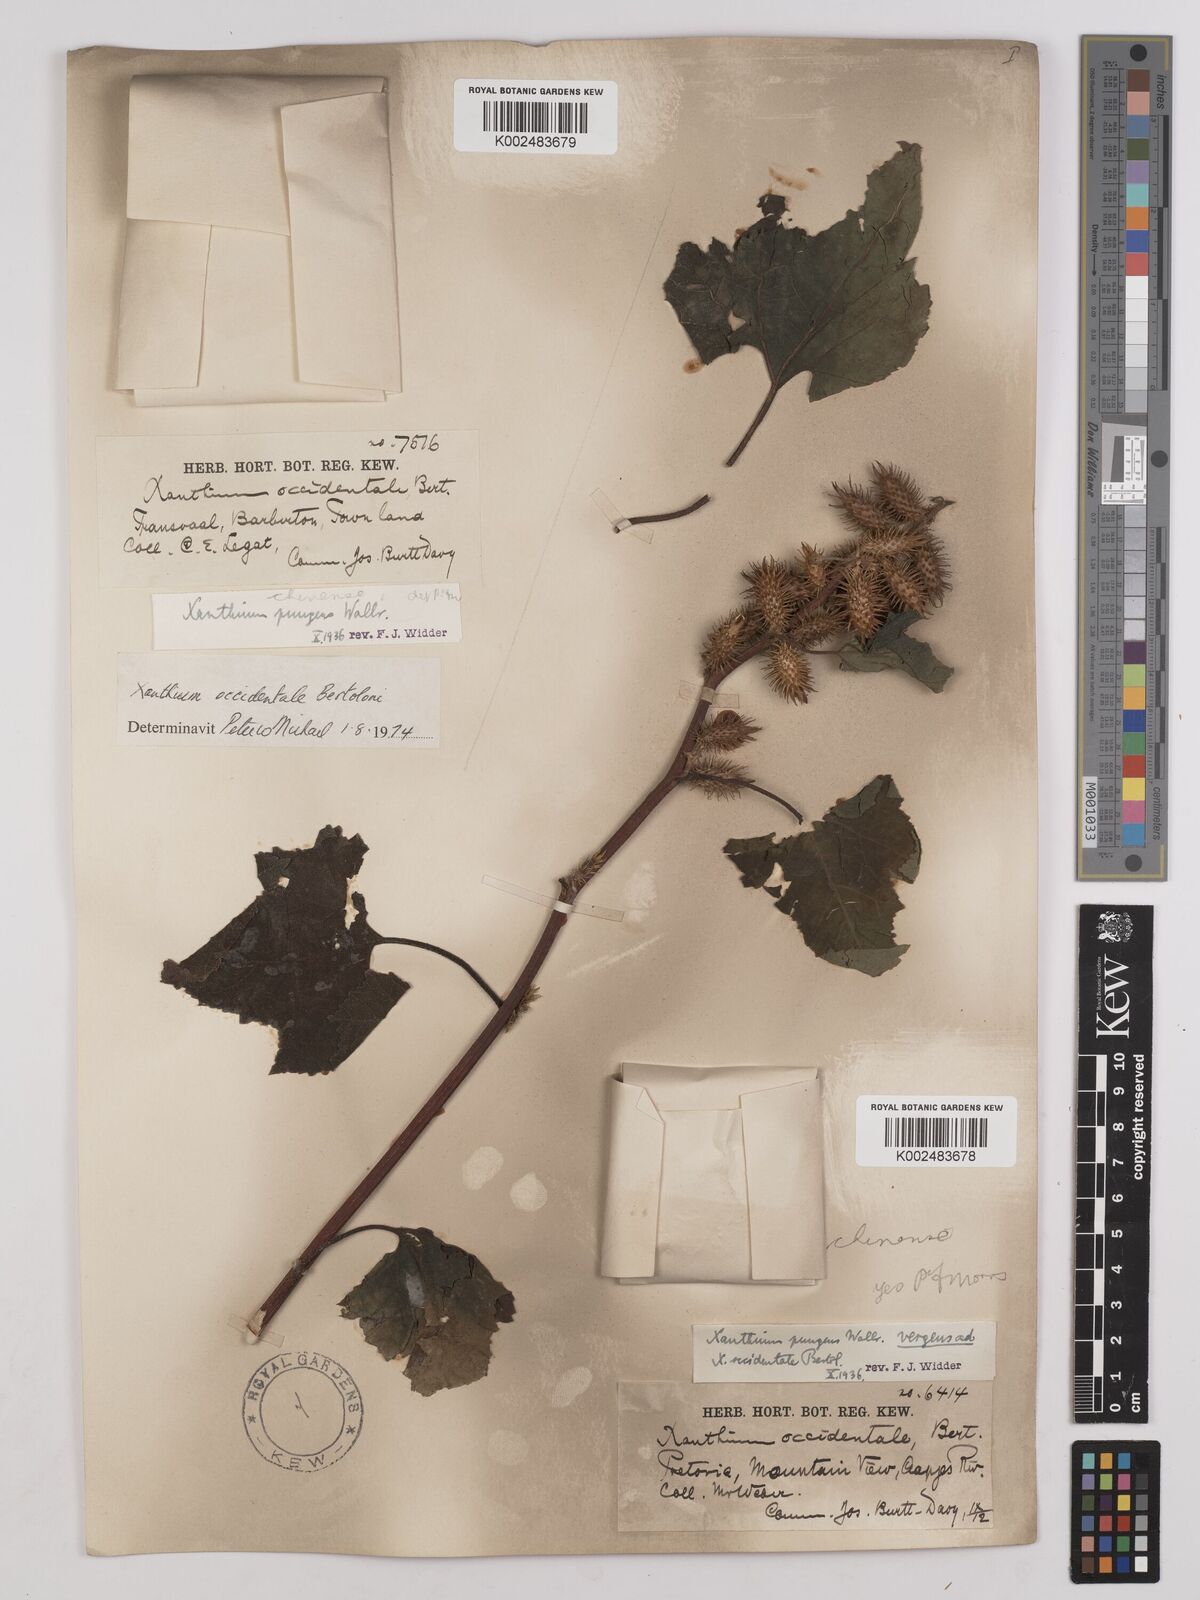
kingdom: Plantae
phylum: Tracheophyta
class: Magnoliopsida
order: Asterales
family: Asteraceae
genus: Xanthium
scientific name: Xanthium occidentale
